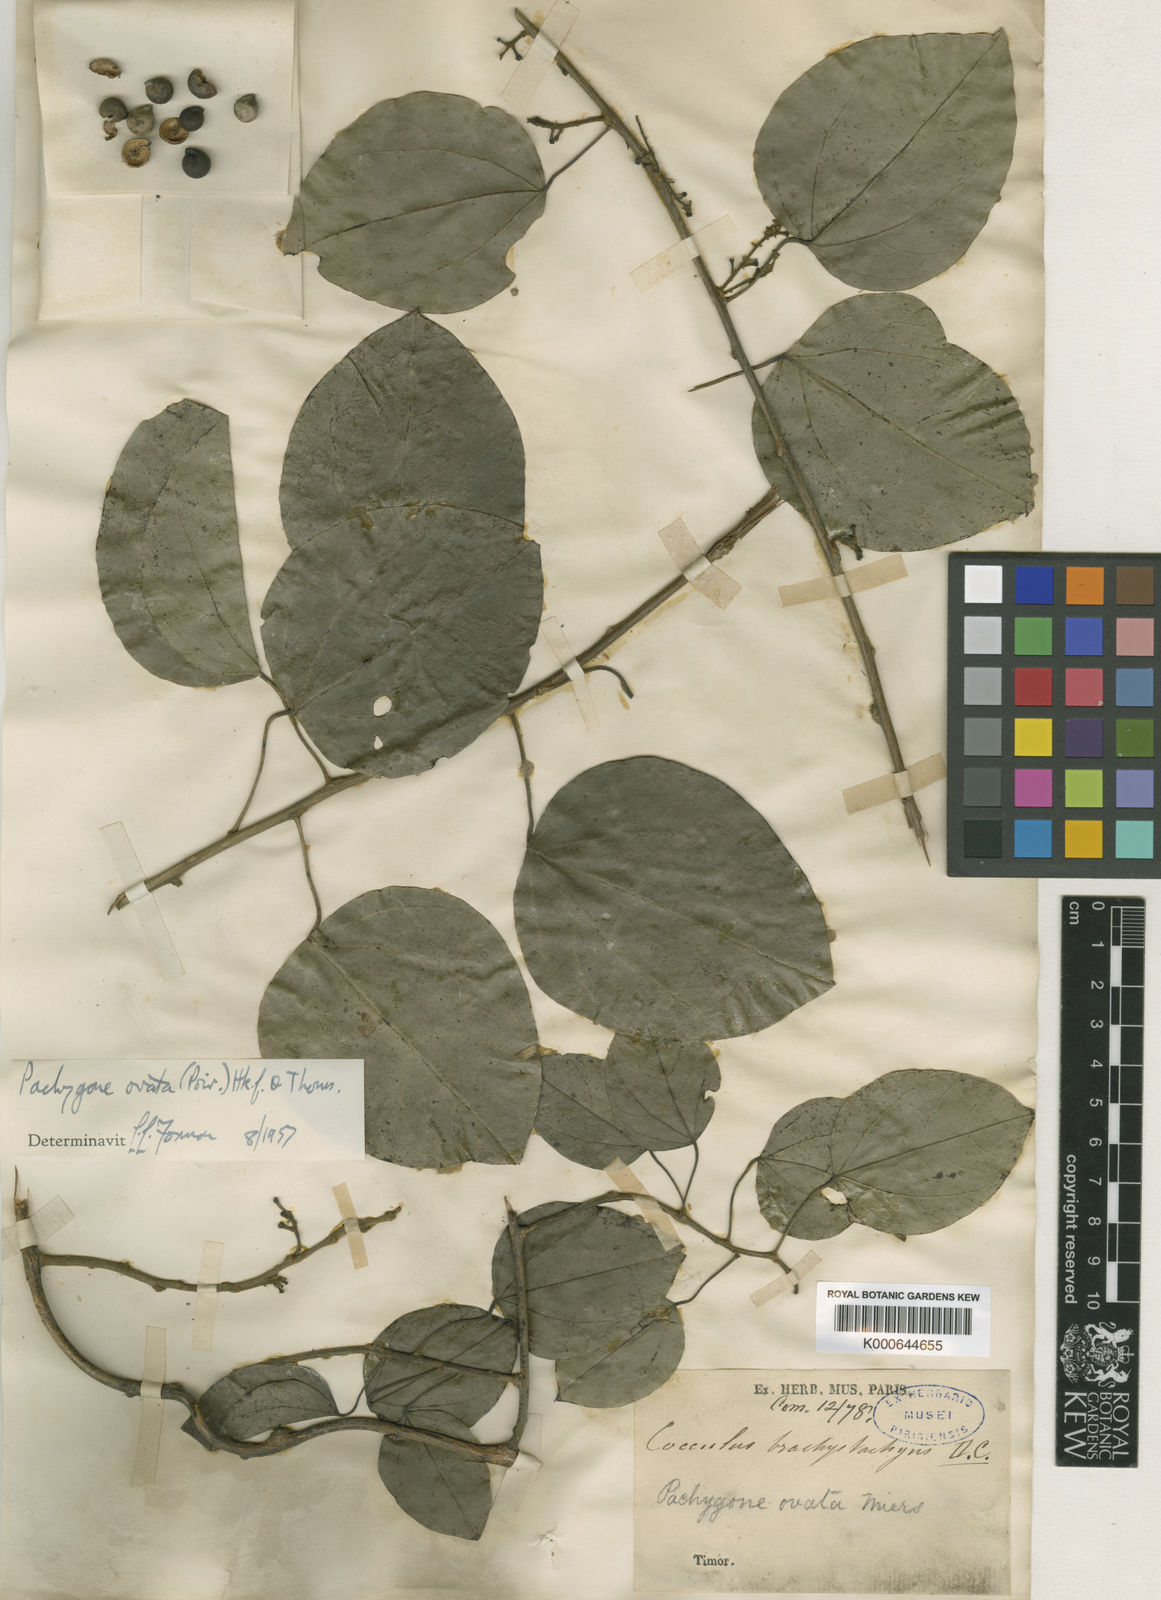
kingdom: Plantae
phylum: Tracheophyta
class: Magnoliopsida
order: Ranunculales
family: Menispermaceae
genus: Pachygone
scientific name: Pachygone ovata
